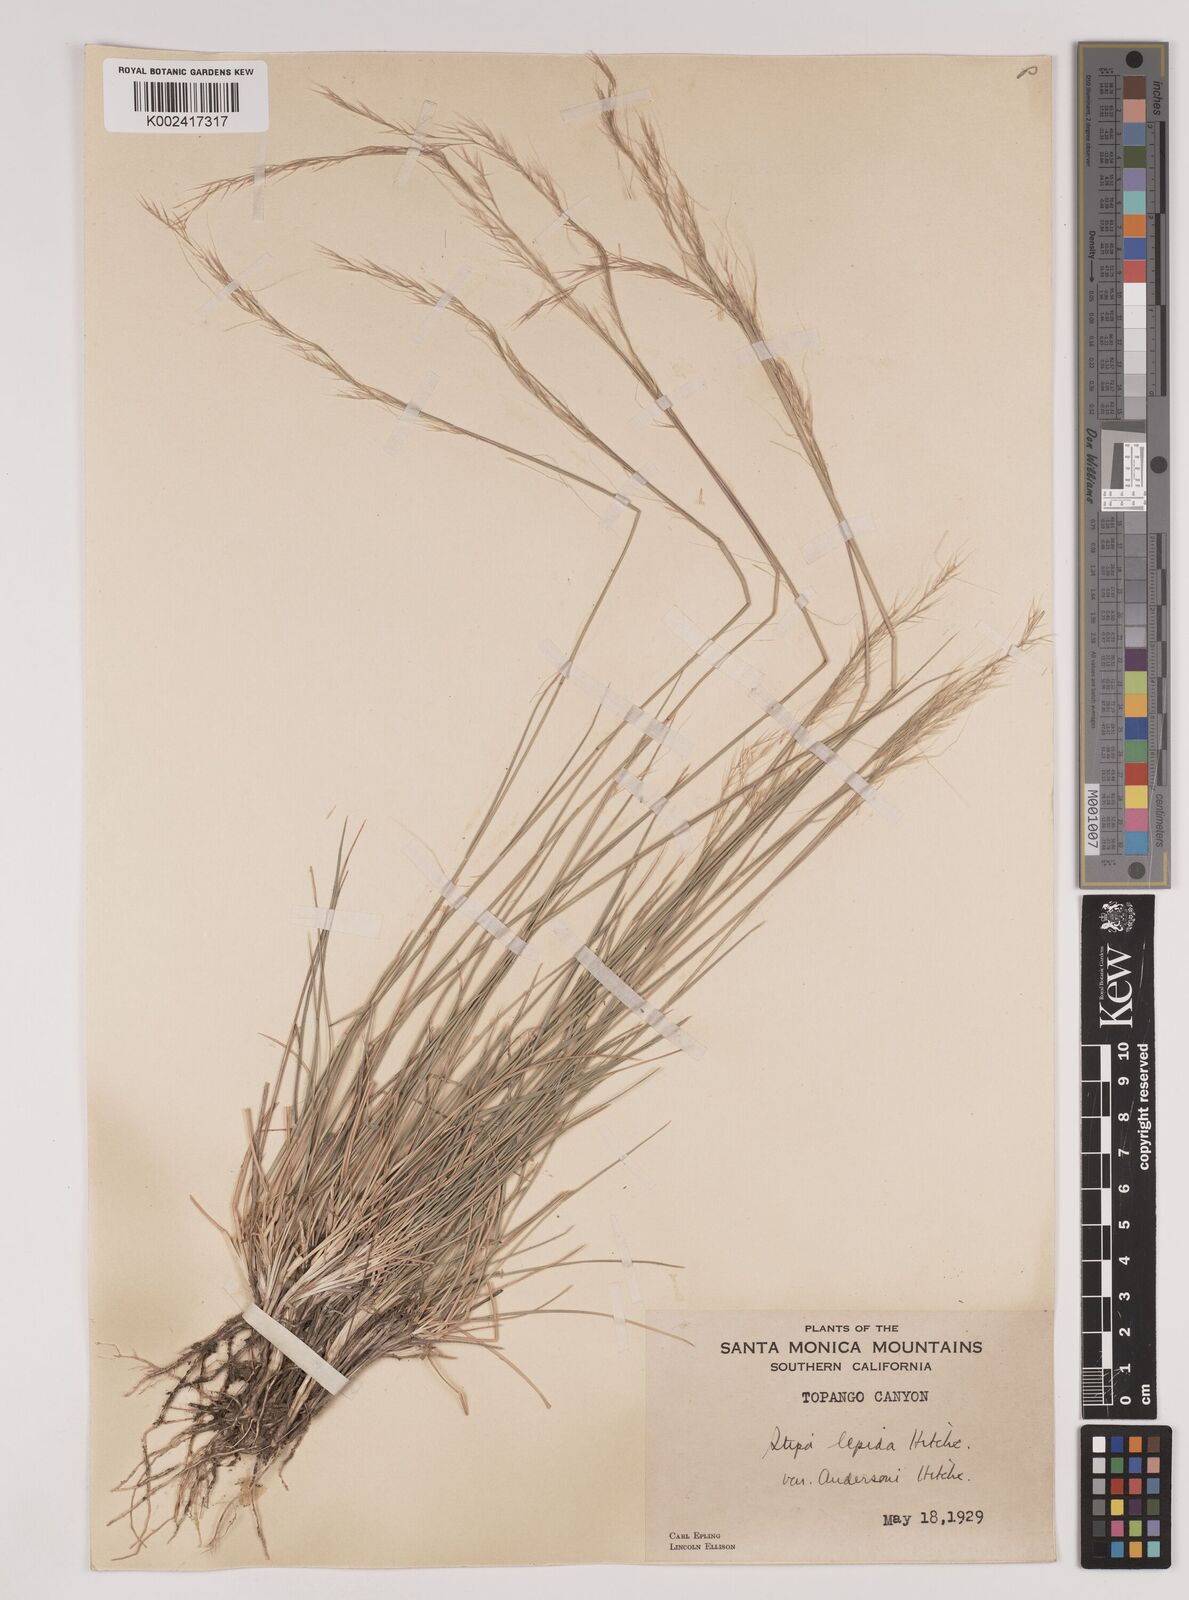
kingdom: Plantae
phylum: Tracheophyta
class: Liliopsida
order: Poales
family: Poaceae
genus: Nassella
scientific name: Nassella lepida
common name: Foothill needlegrass
